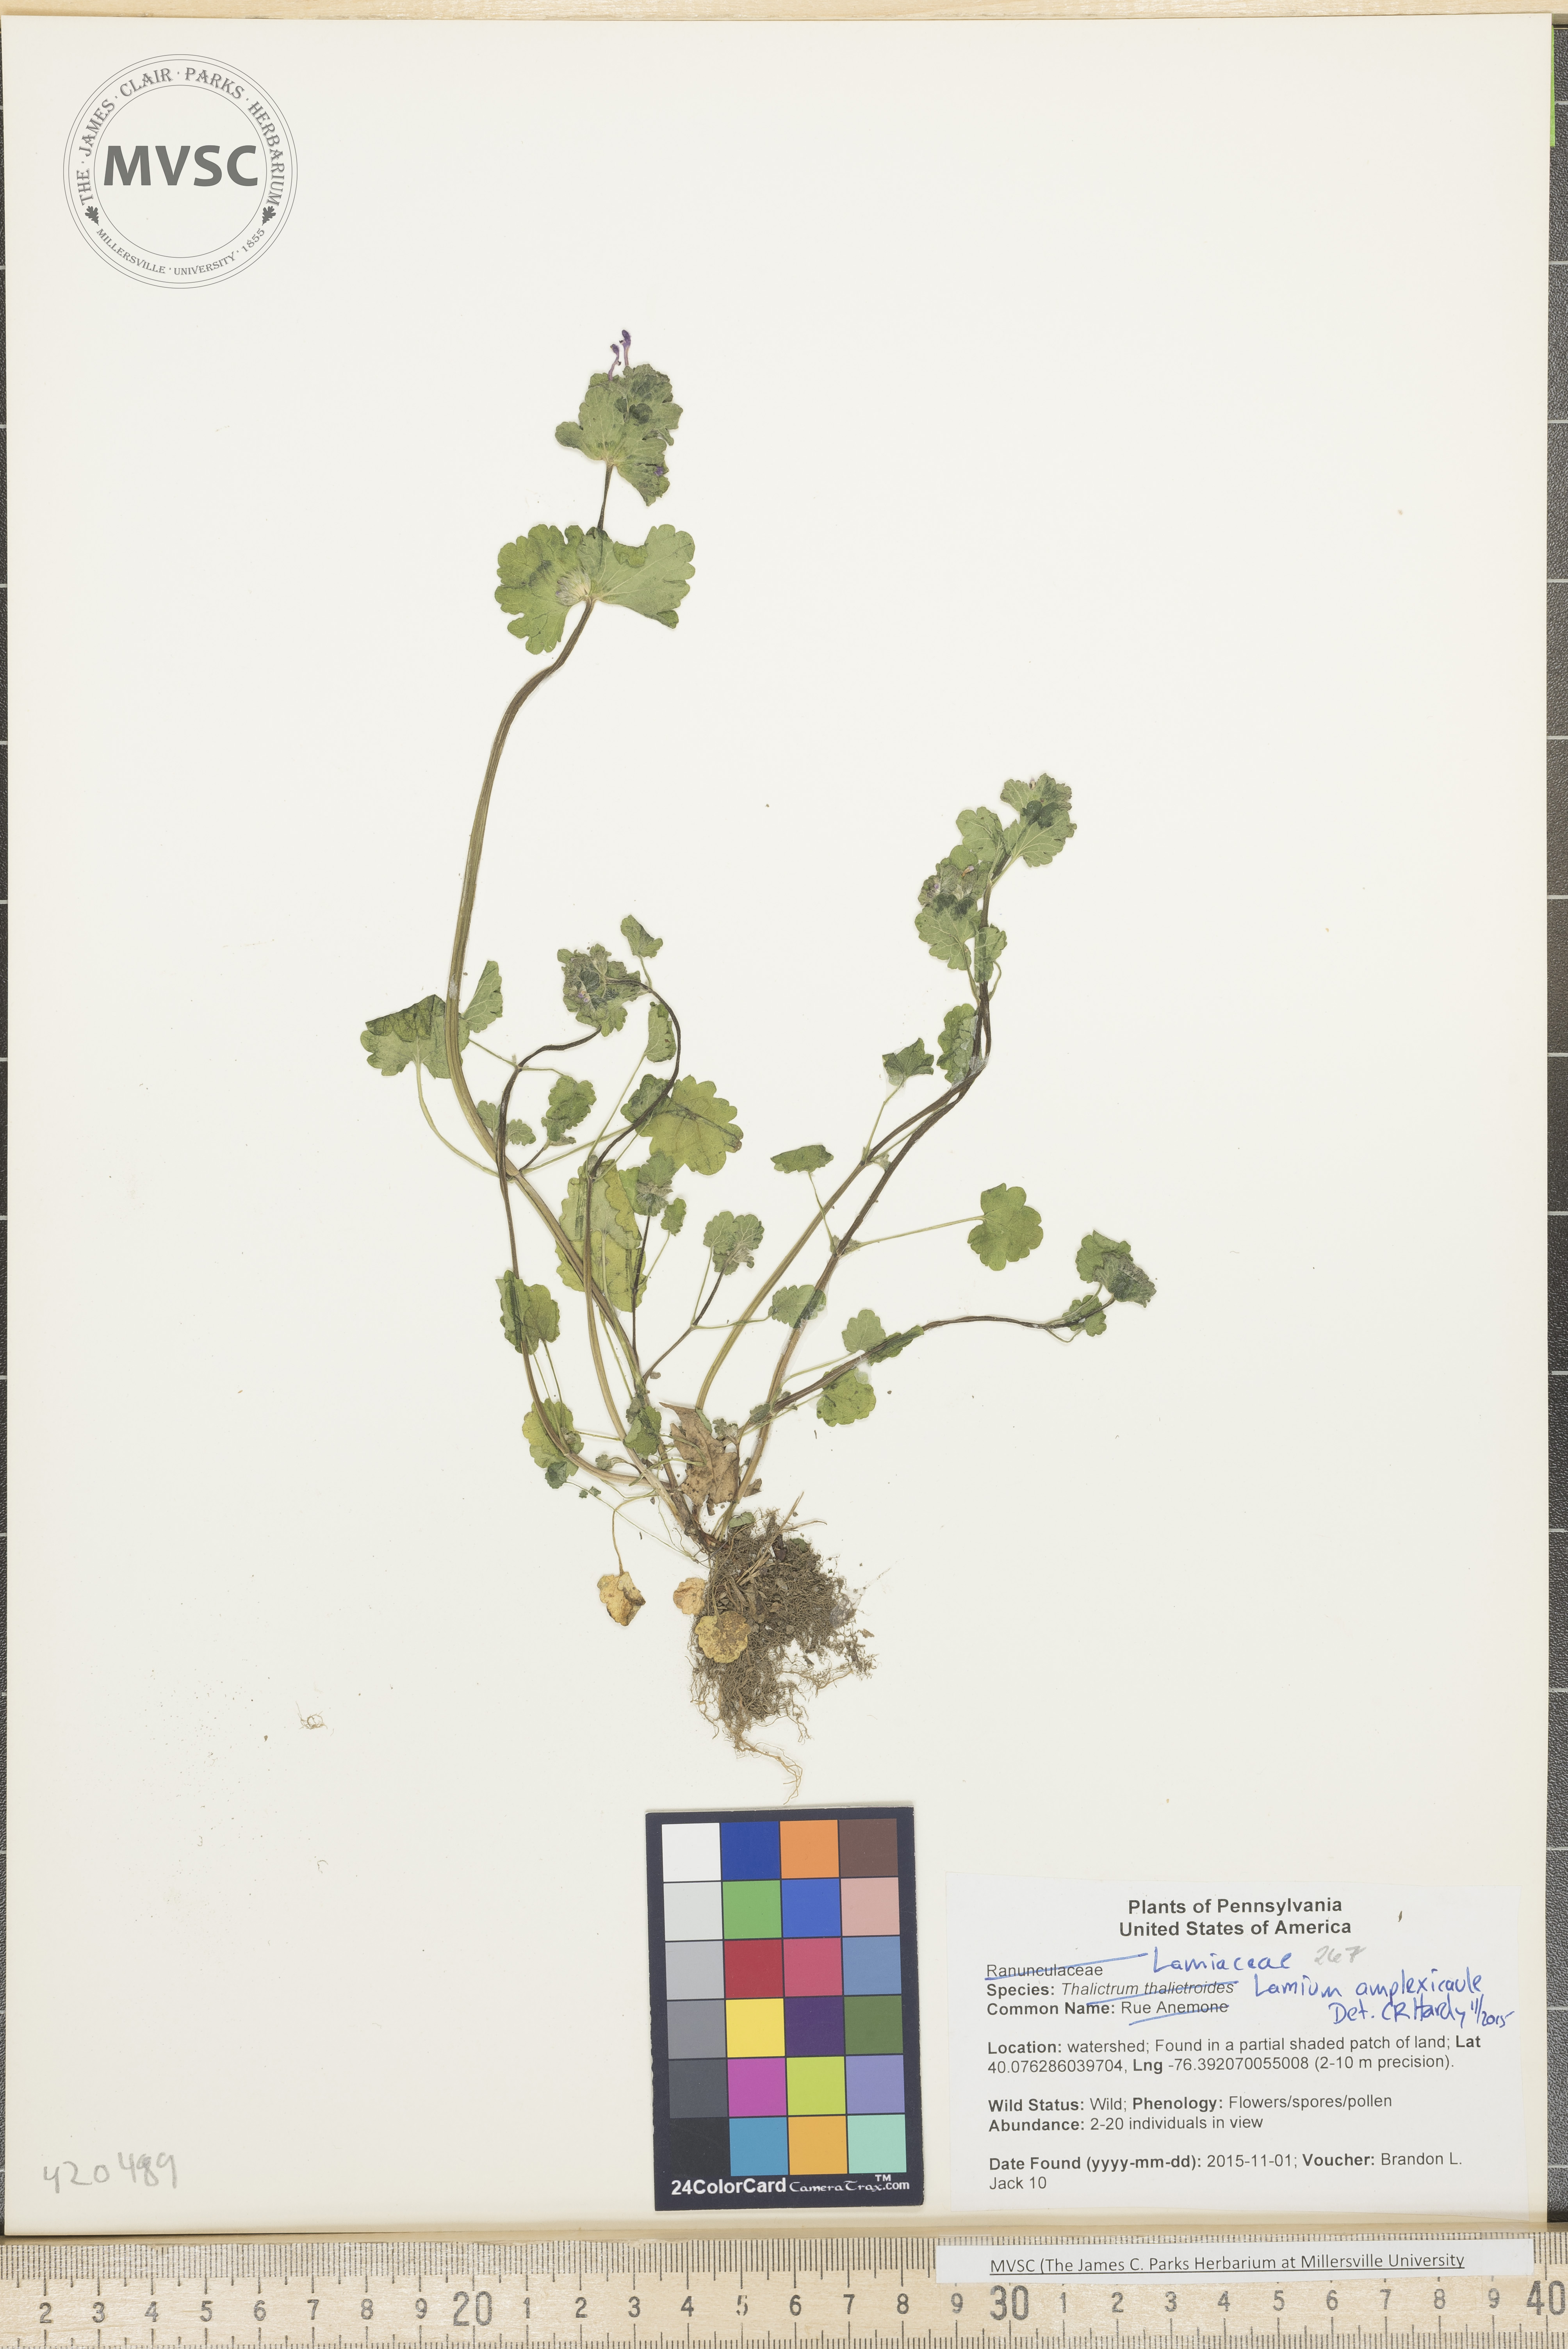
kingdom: Plantae
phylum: Tracheophyta
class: Magnoliopsida
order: Lamiales
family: Lamiaceae
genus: Lamium
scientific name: Lamium amplexicaule
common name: Henbit
